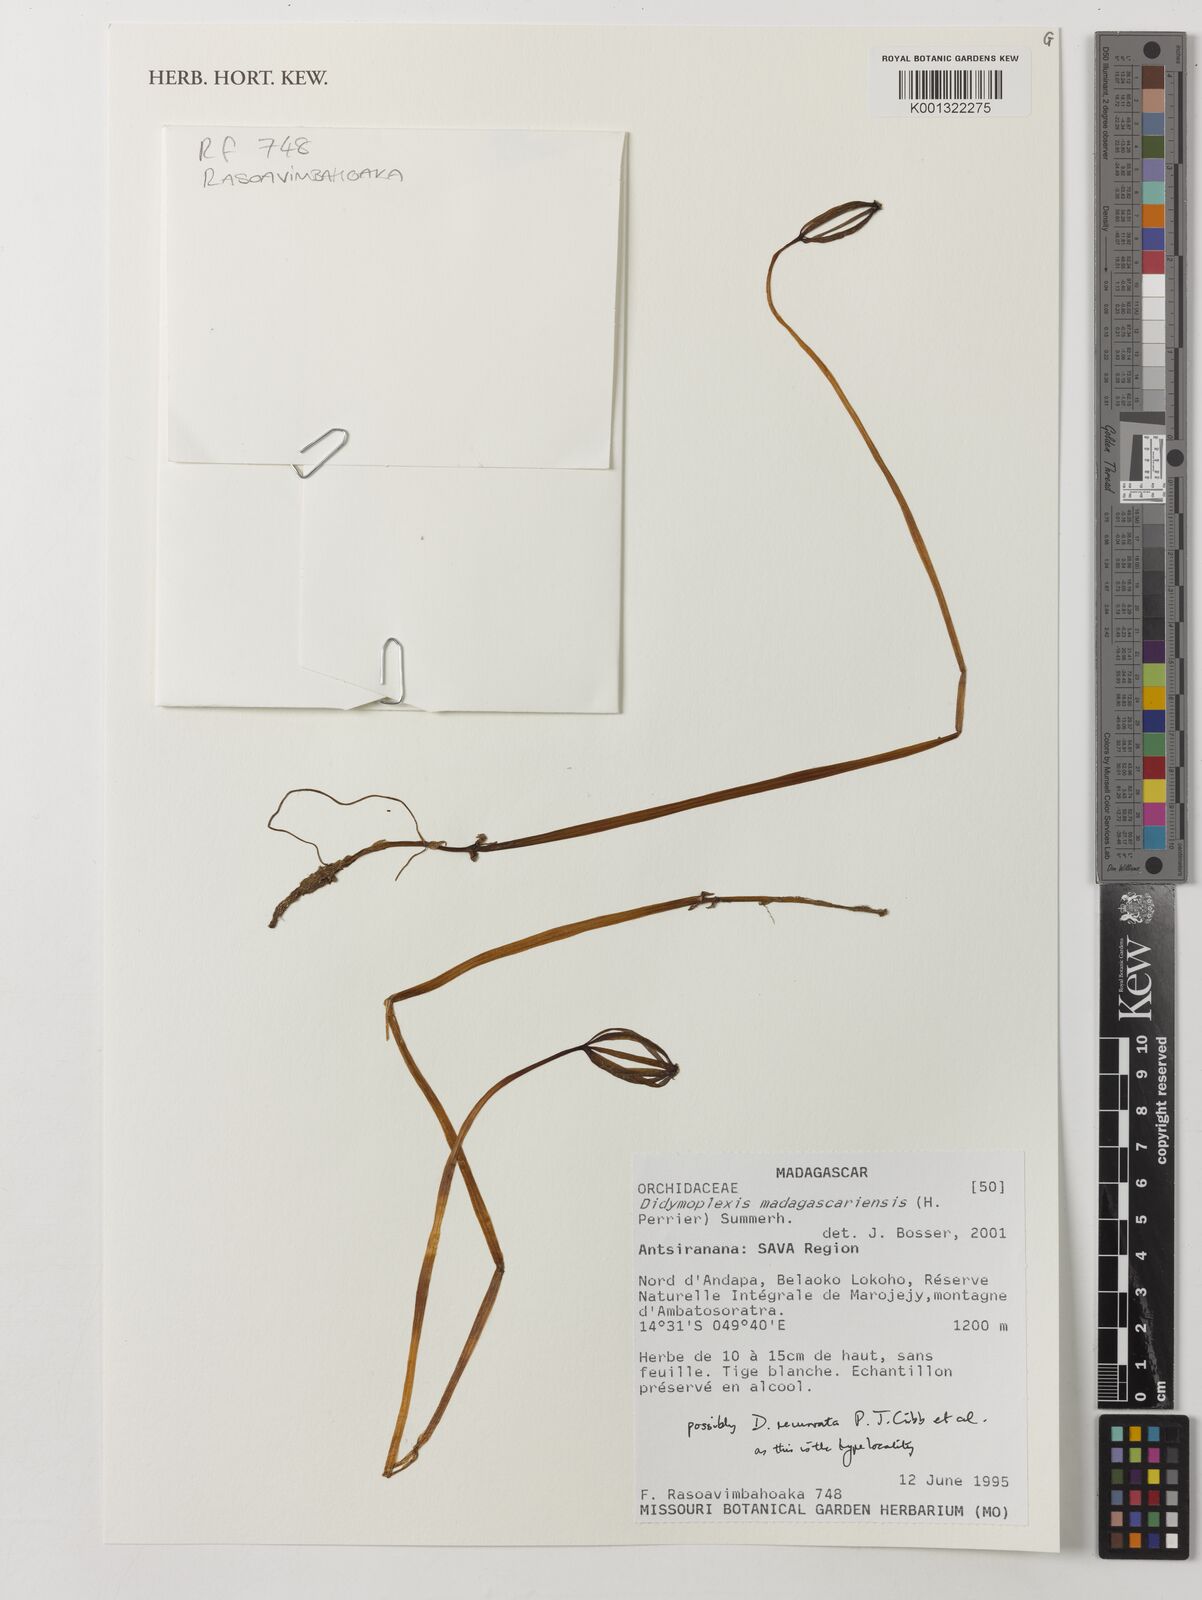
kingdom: Plantae
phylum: Tracheophyta
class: Liliopsida
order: Asparagales
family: Orchidaceae
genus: Gastrodia
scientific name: Gastrodia madagascariensis
